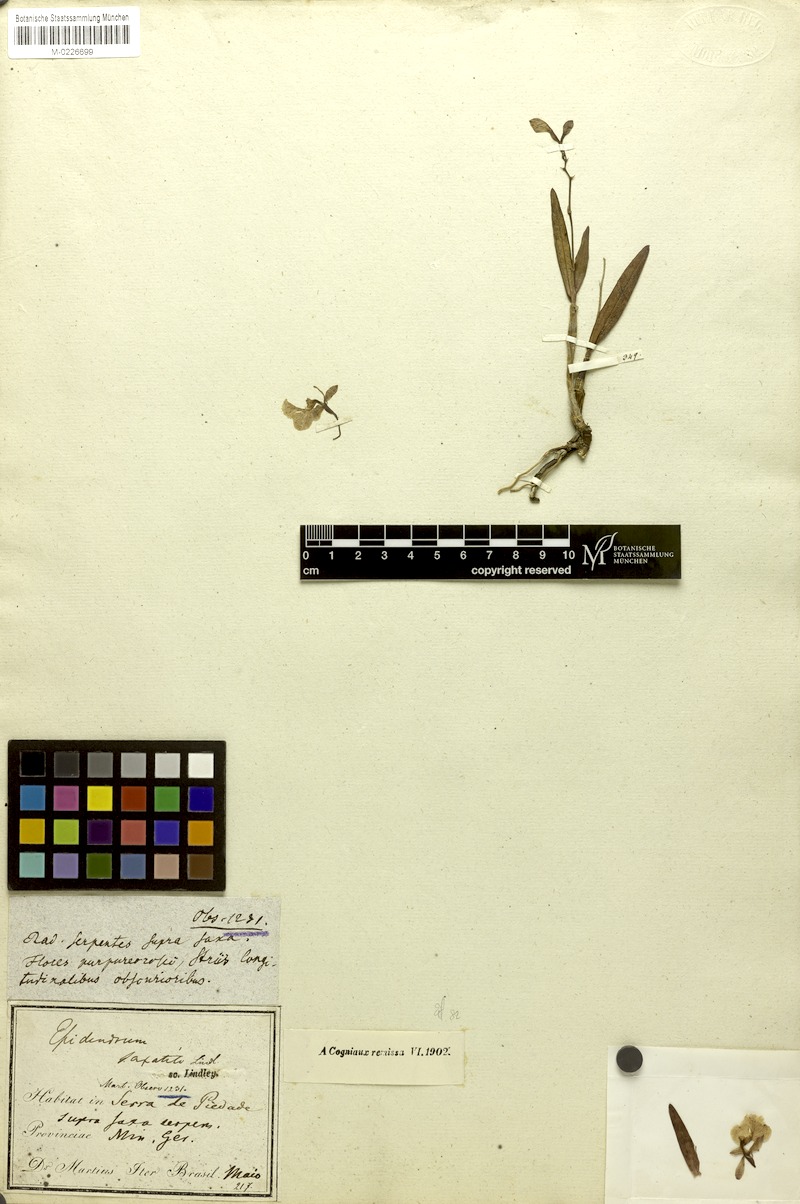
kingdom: Plantae
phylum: Tracheophyta
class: Liliopsida
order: Asparagales
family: Orchidaceae
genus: Epidendrum
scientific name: Epidendrum saxatile
